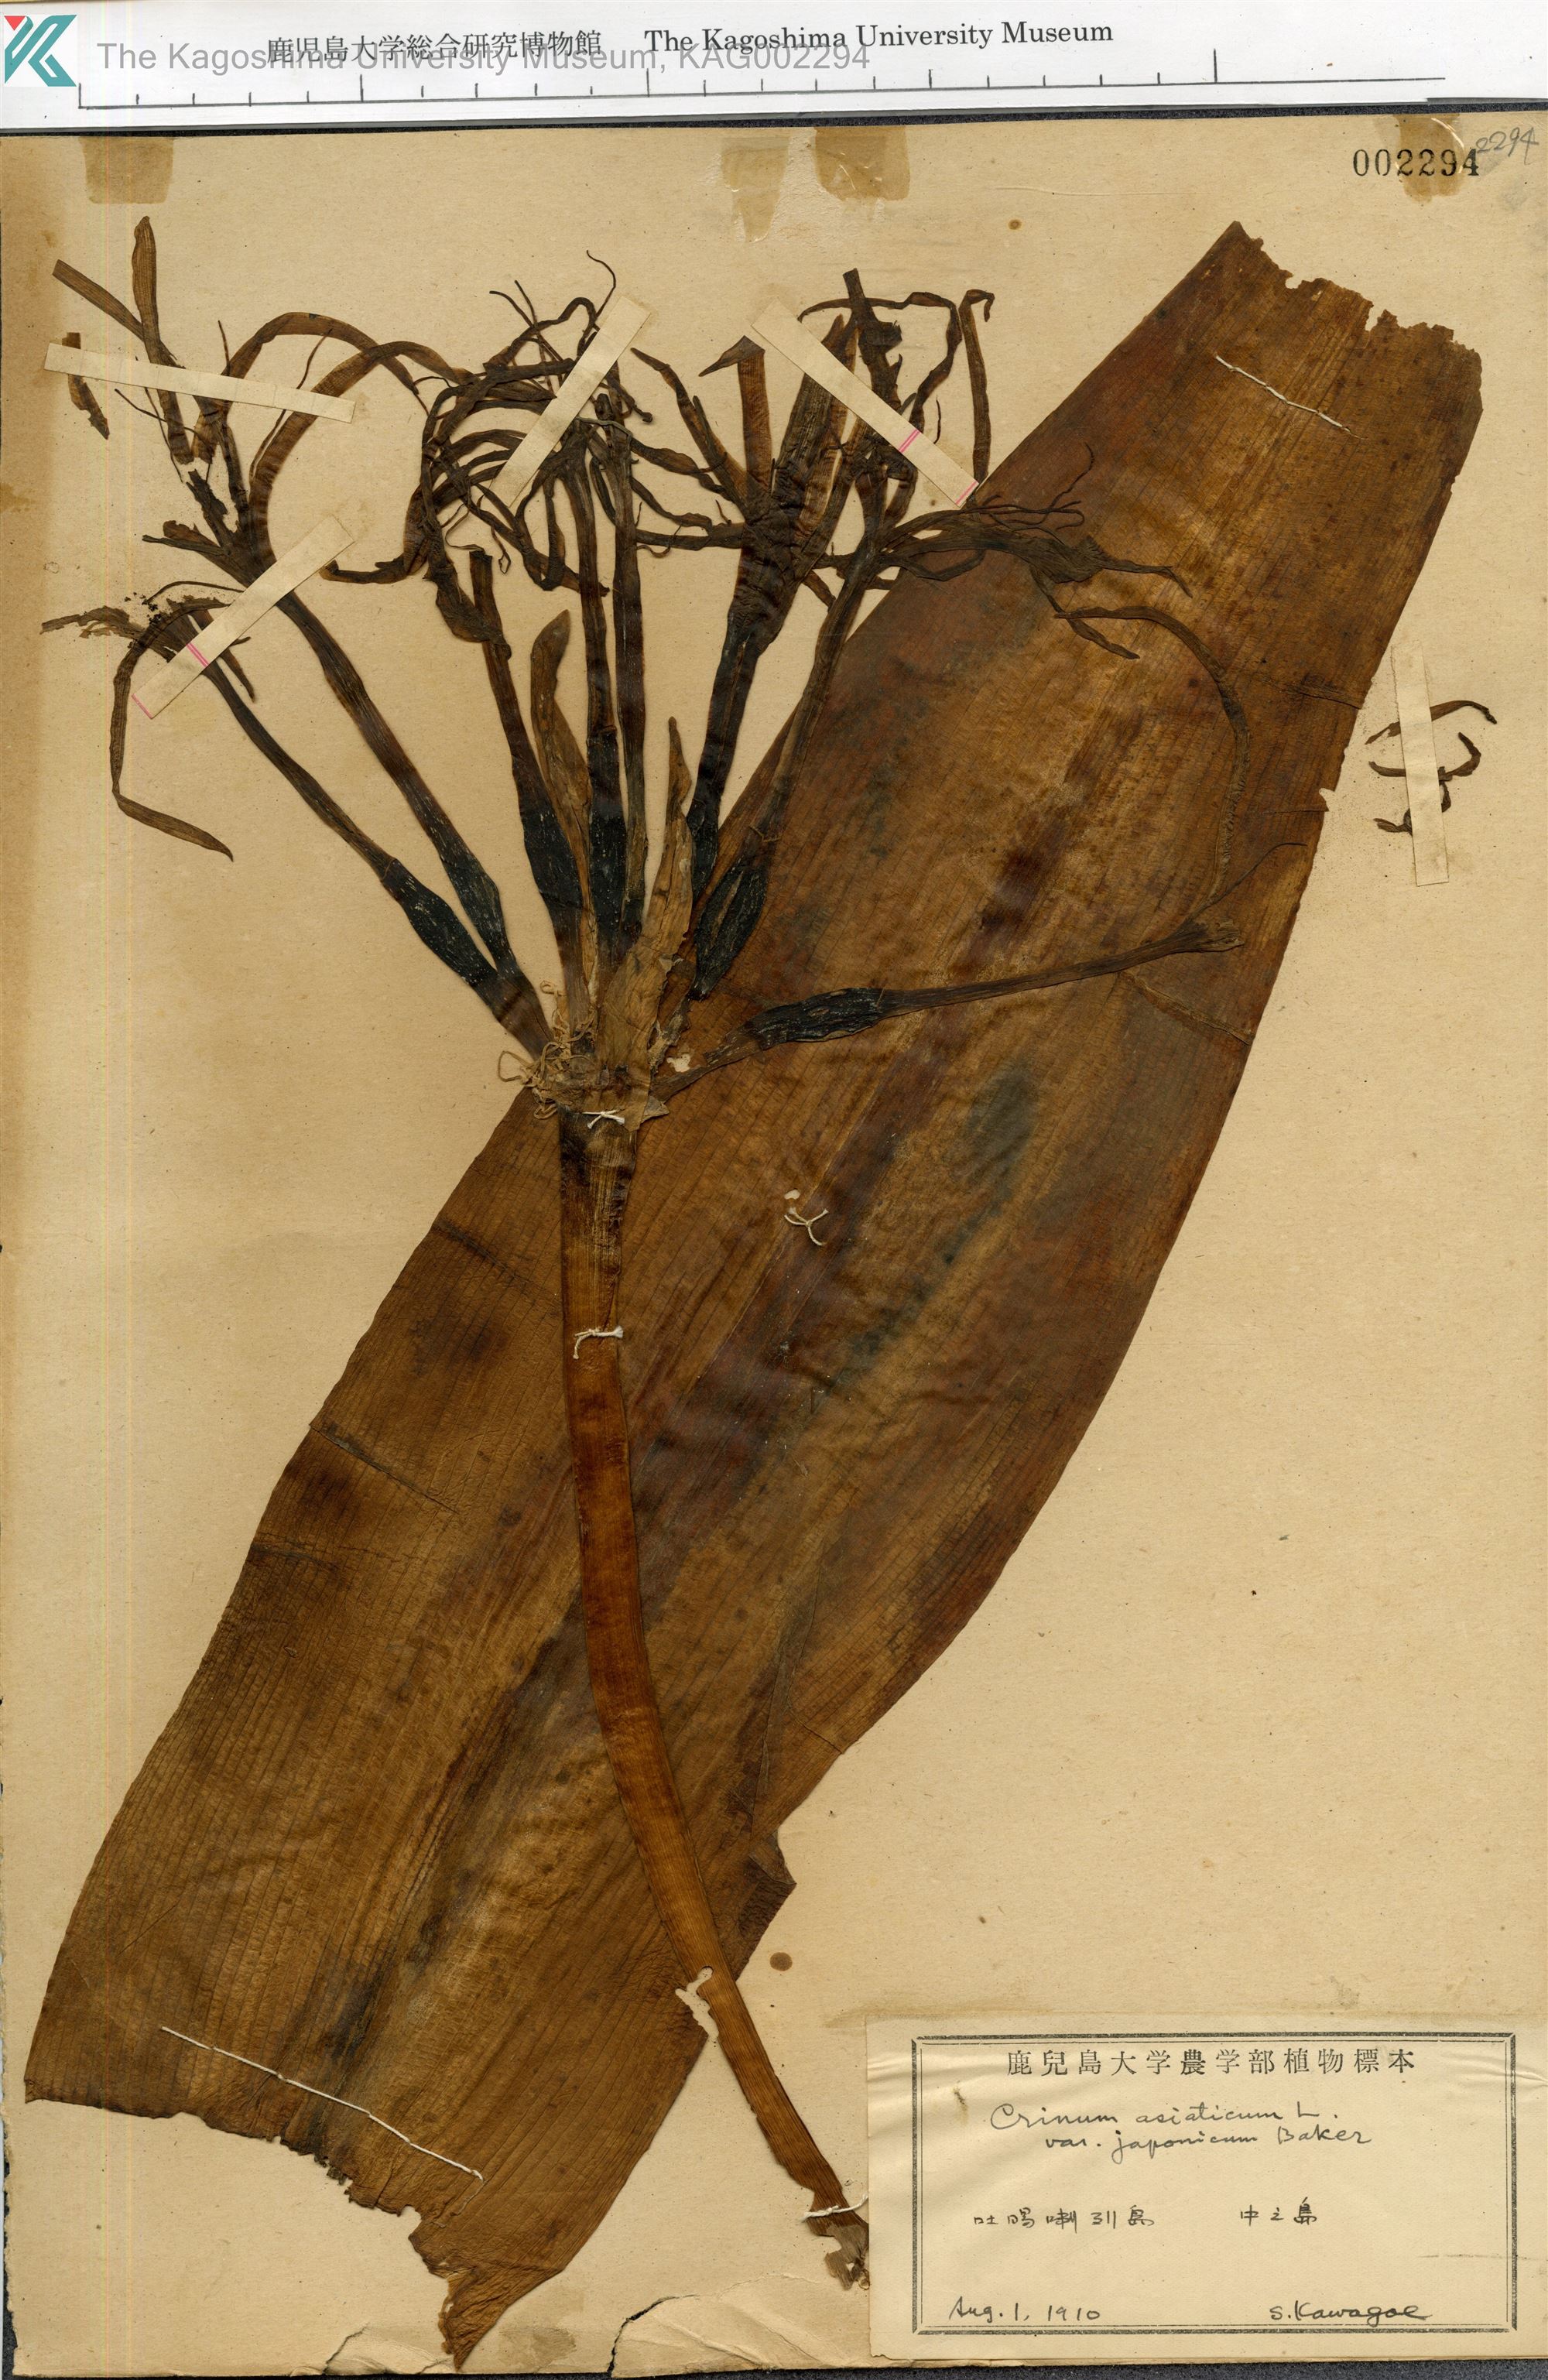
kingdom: Plantae
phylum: Tracheophyta
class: Liliopsida
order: Asparagales
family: Amaryllidaceae
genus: Crinum
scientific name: Crinum asiaticum
